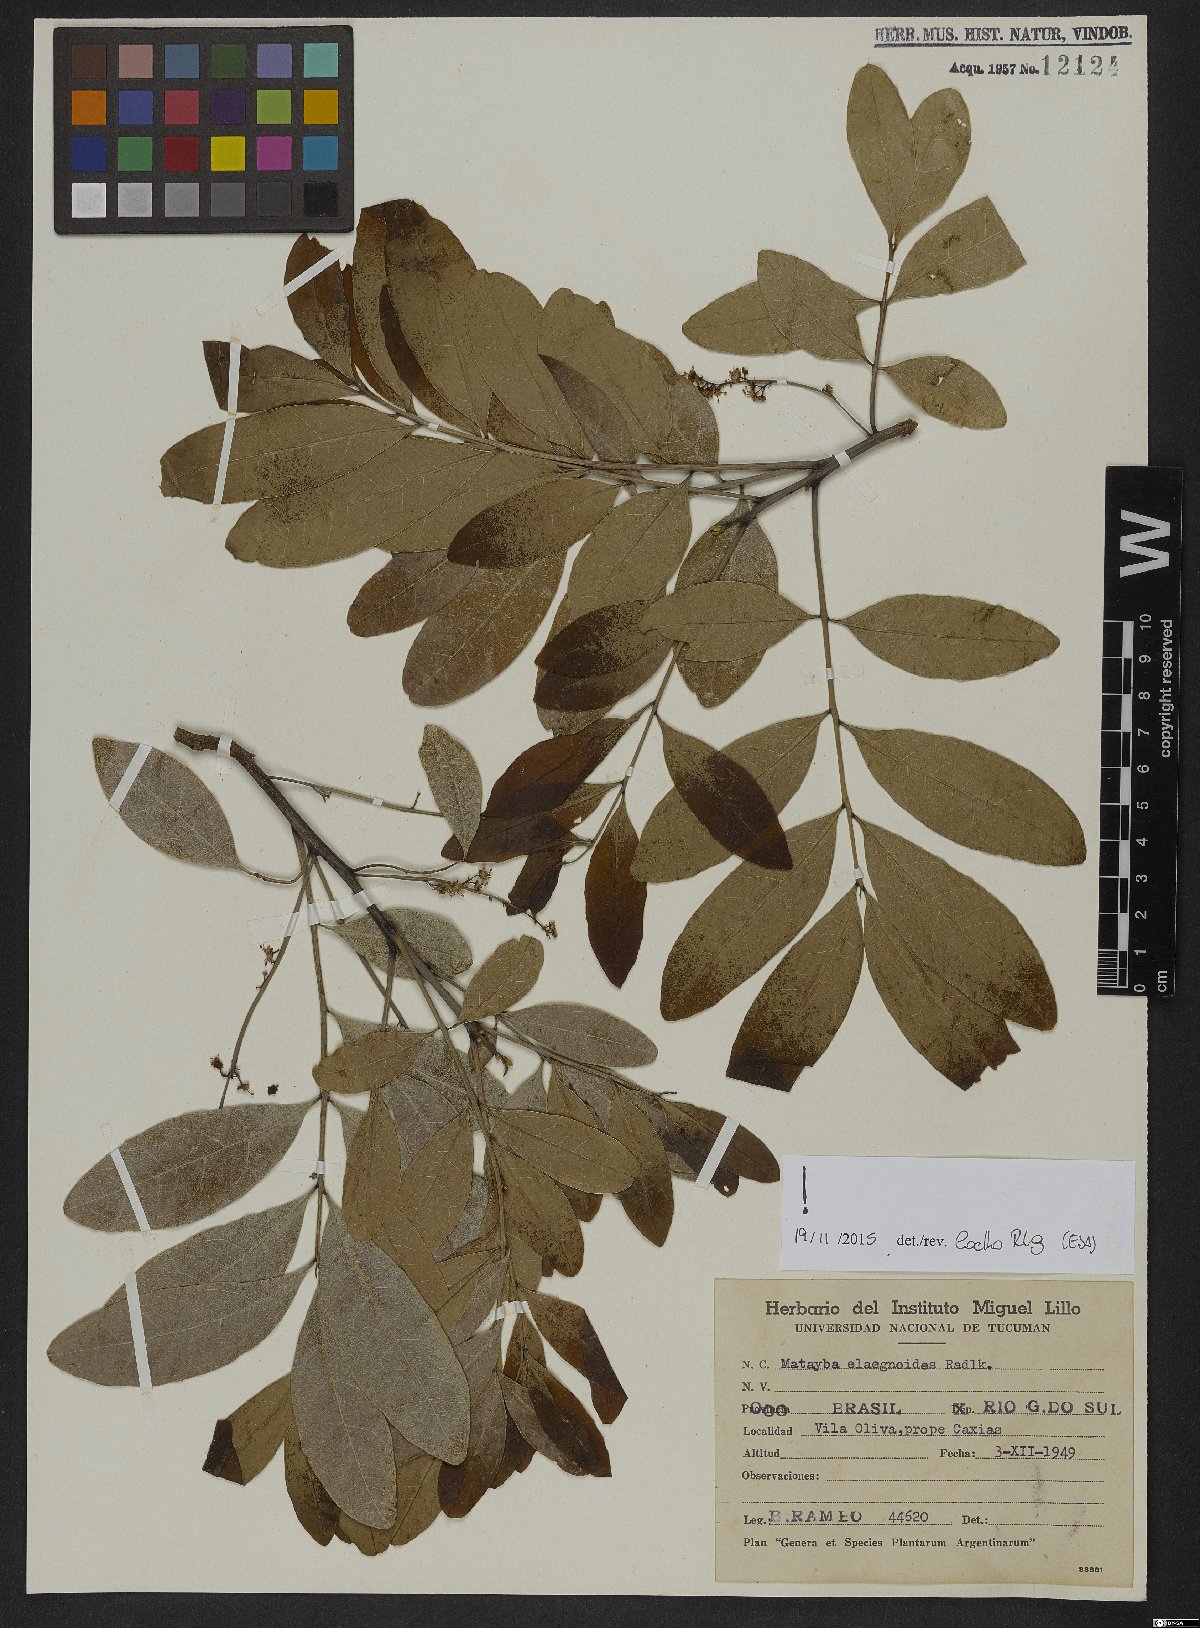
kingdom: Plantae
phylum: Tracheophyta
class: Magnoliopsida
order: Sapindales
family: Sapindaceae
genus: Matayba
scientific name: Matayba elaeagnoides
